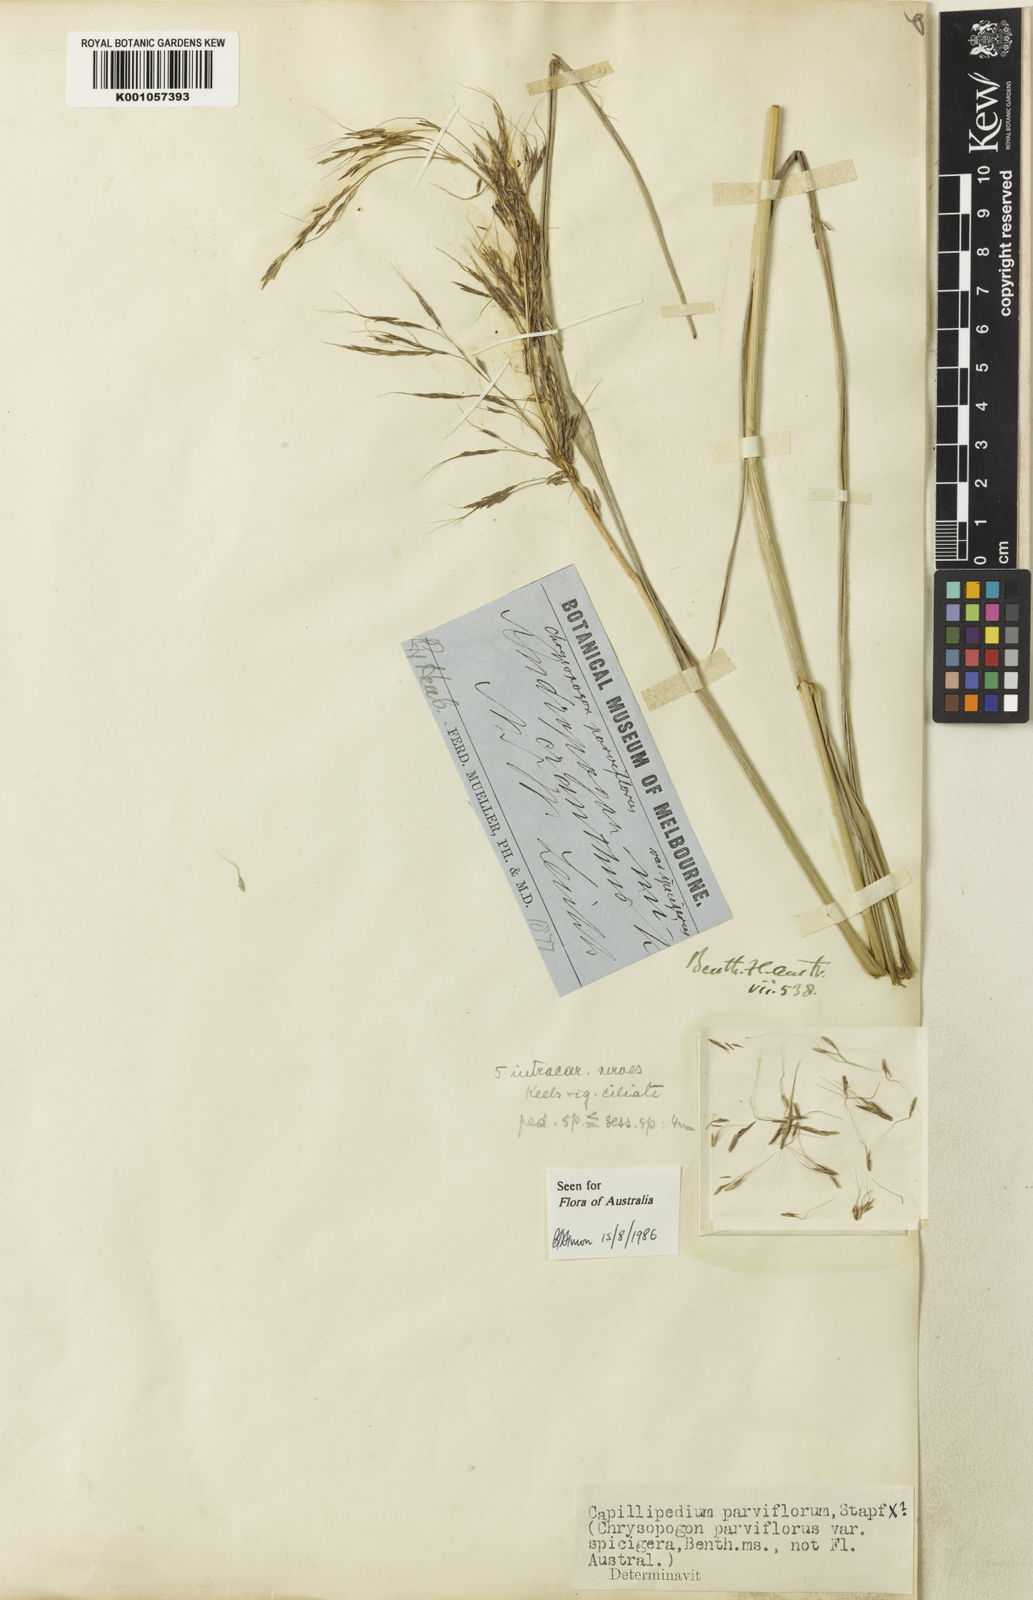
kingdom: Plantae
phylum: Tracheophyta
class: Liliopsida
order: Poales
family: Poaceae
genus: Capillipedium
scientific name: Capillipedium spicigerum
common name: Scented-top grass
